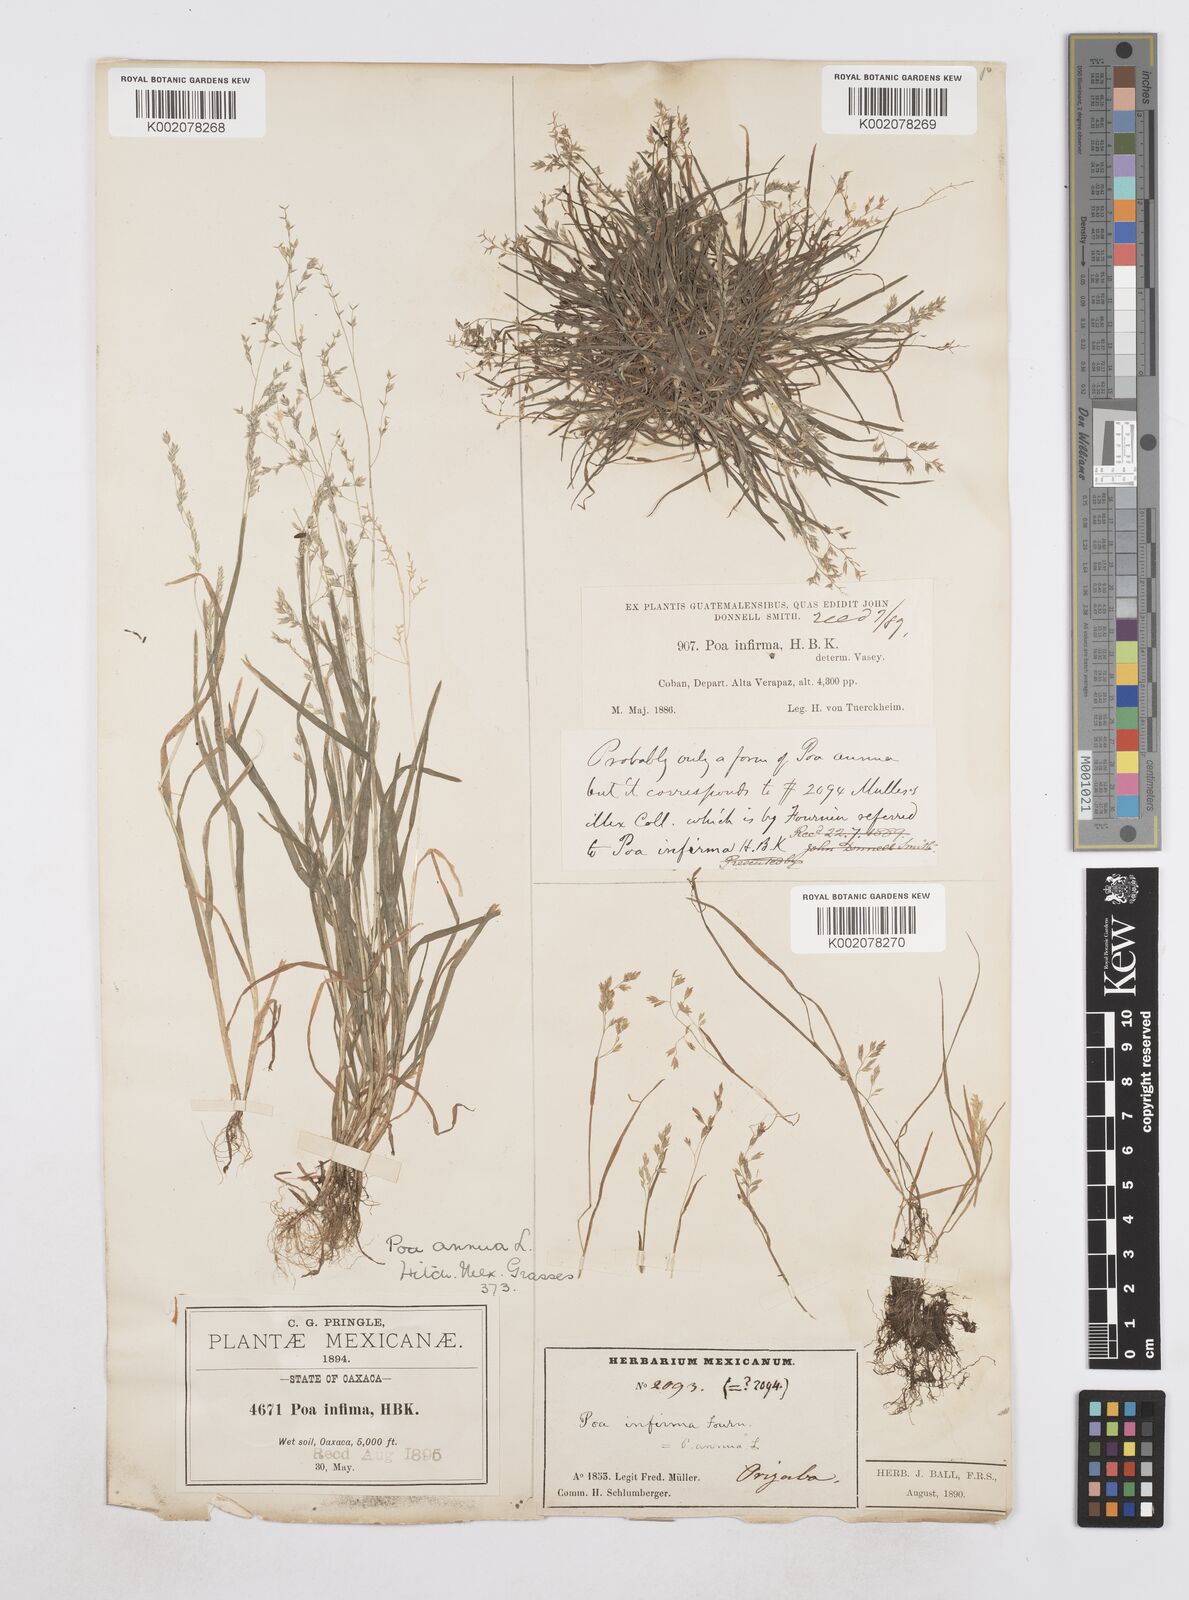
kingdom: Plantae
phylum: Tracheophyta
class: Liliopsida
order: Poales
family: Poaceae
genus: Poa
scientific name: Poa annua
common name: Annual bluegrass
